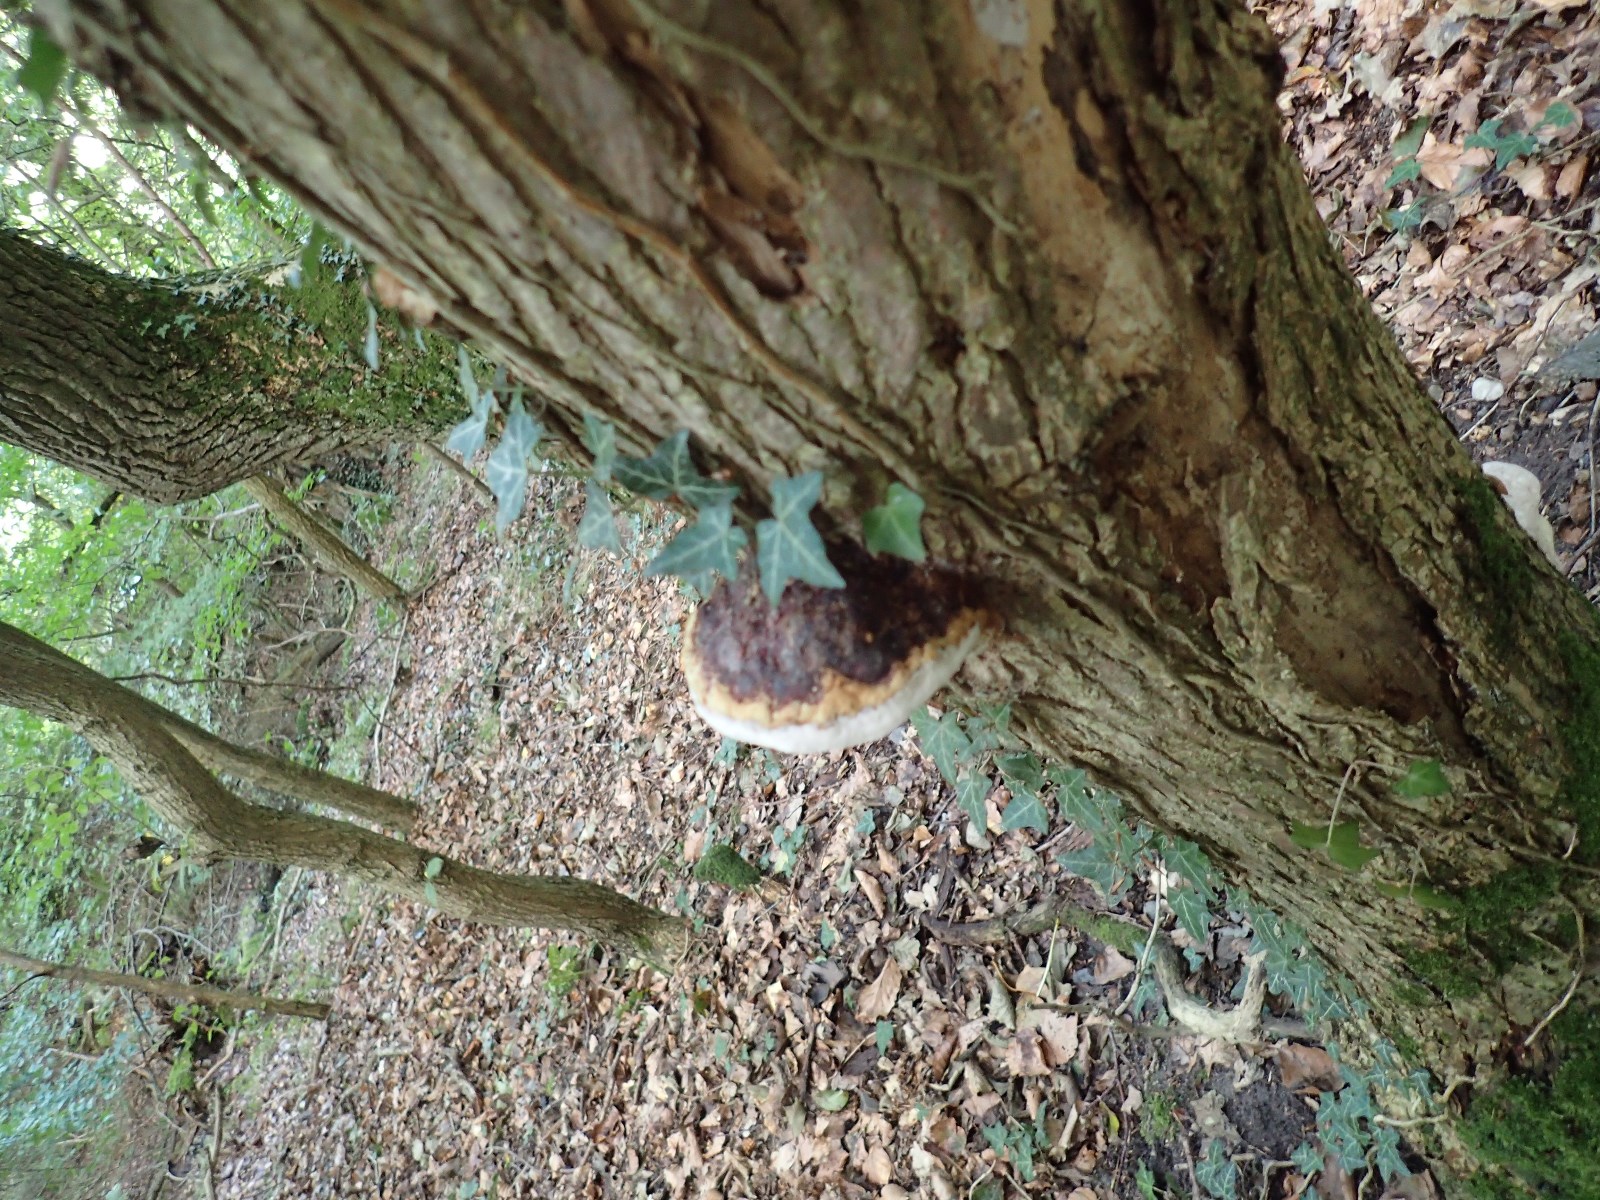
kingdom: Fungi
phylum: Basidiomycota
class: Agaricomycetes
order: Polyporales
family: Fomitopsidaceae
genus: Fomitopsis
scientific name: Fomitopsis pinicola
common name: randbæltet hovporesvamp
